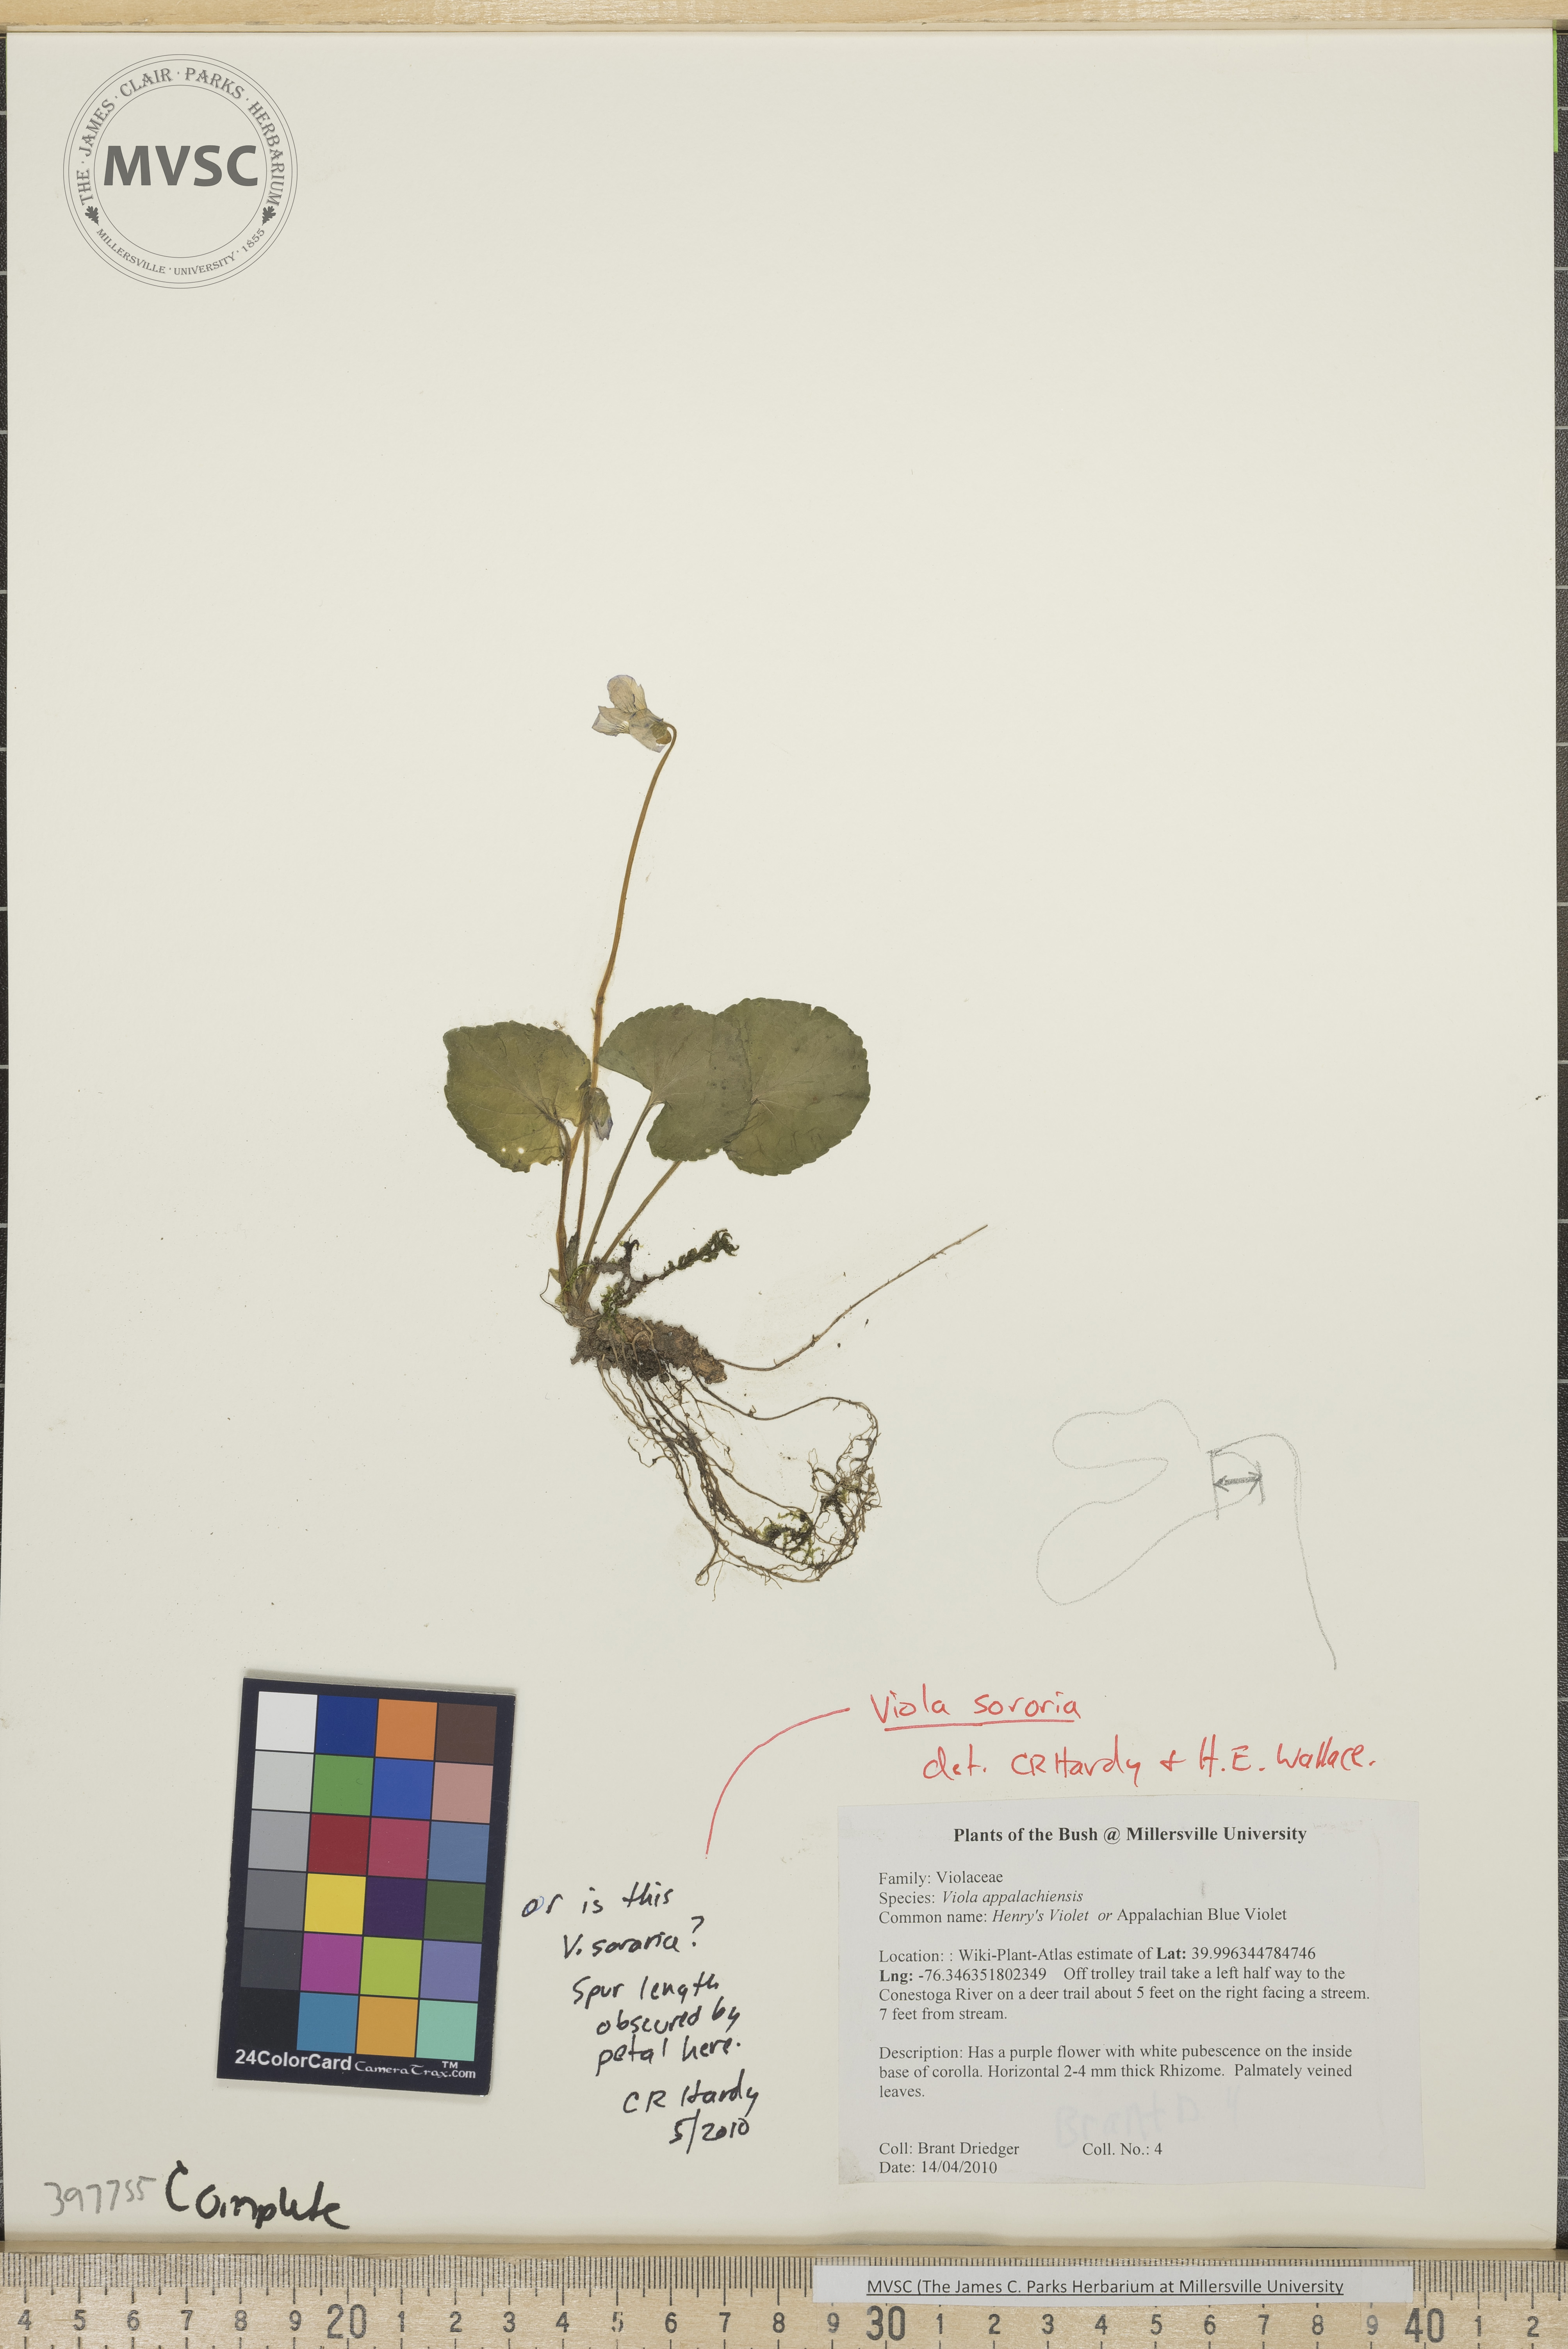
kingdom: Plantae
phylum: Tracheophyta
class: Magnoliopsida
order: Malpighiales
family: Violaceae
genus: Viola
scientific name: Viola sororia
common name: Common blue violet
